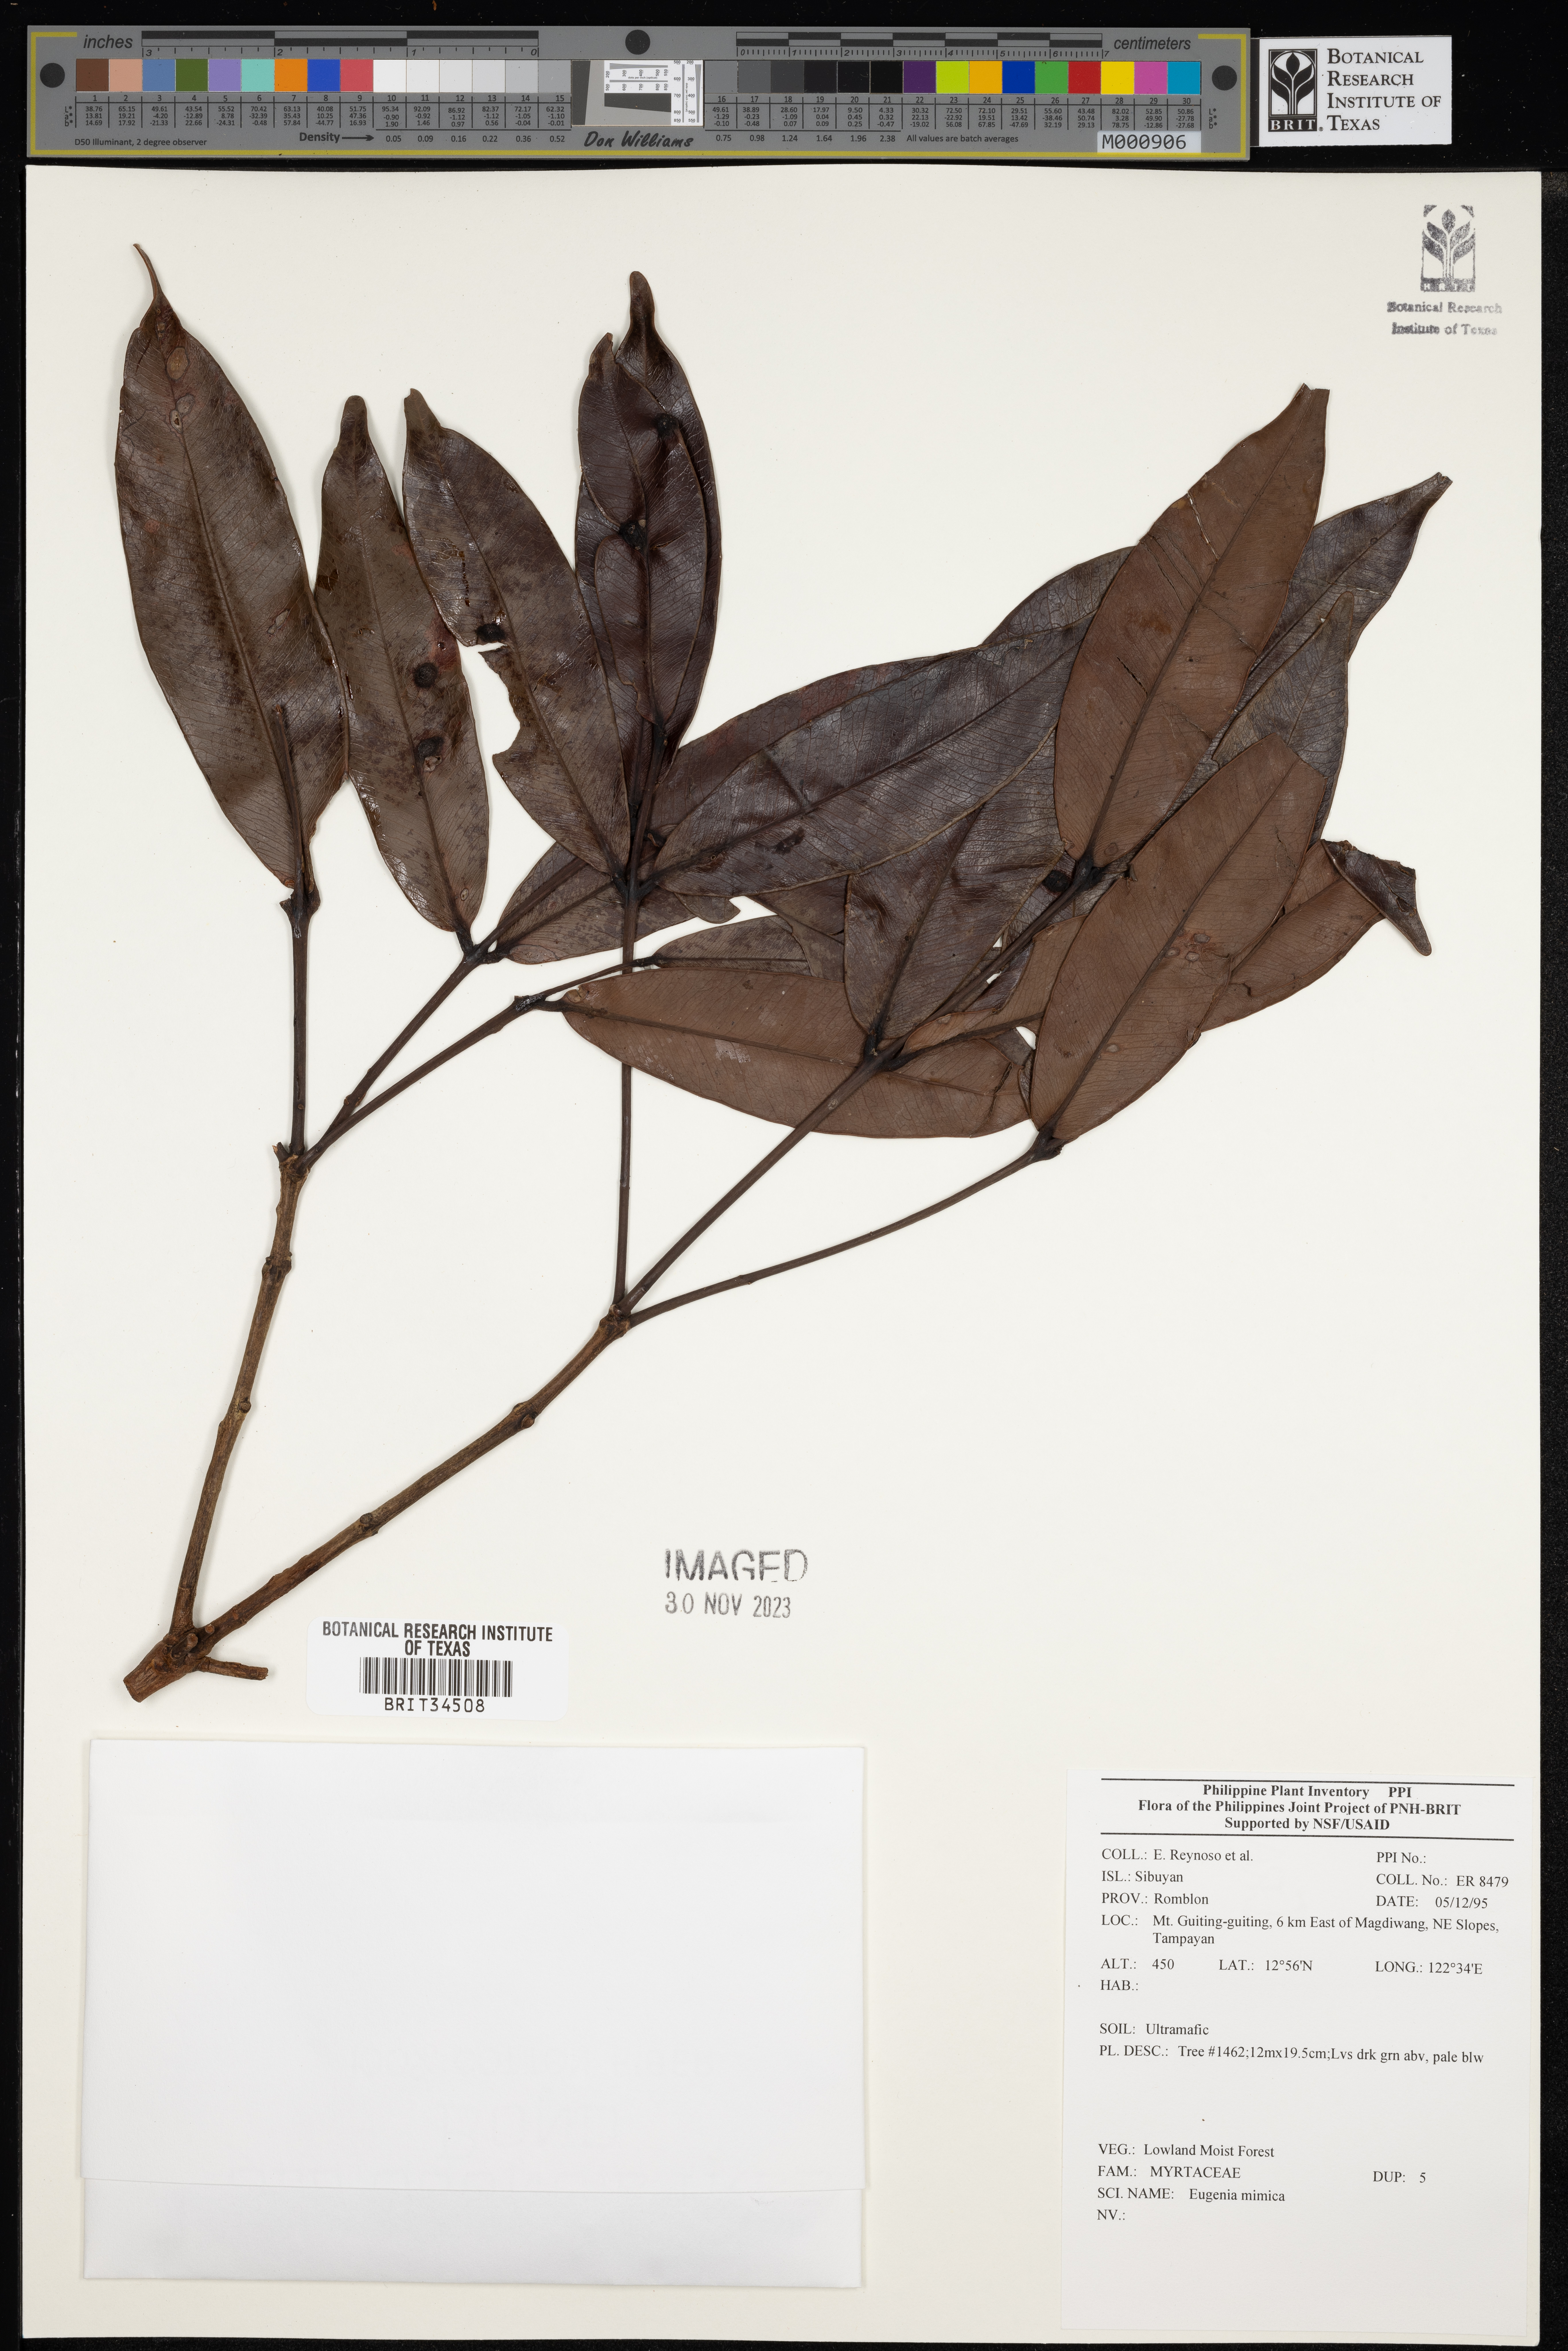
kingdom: Plantae
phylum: Tracheophyta
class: Magnoliopsida
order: Myrtales
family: Myrtaceae
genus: Eugenia
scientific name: Eugenia
